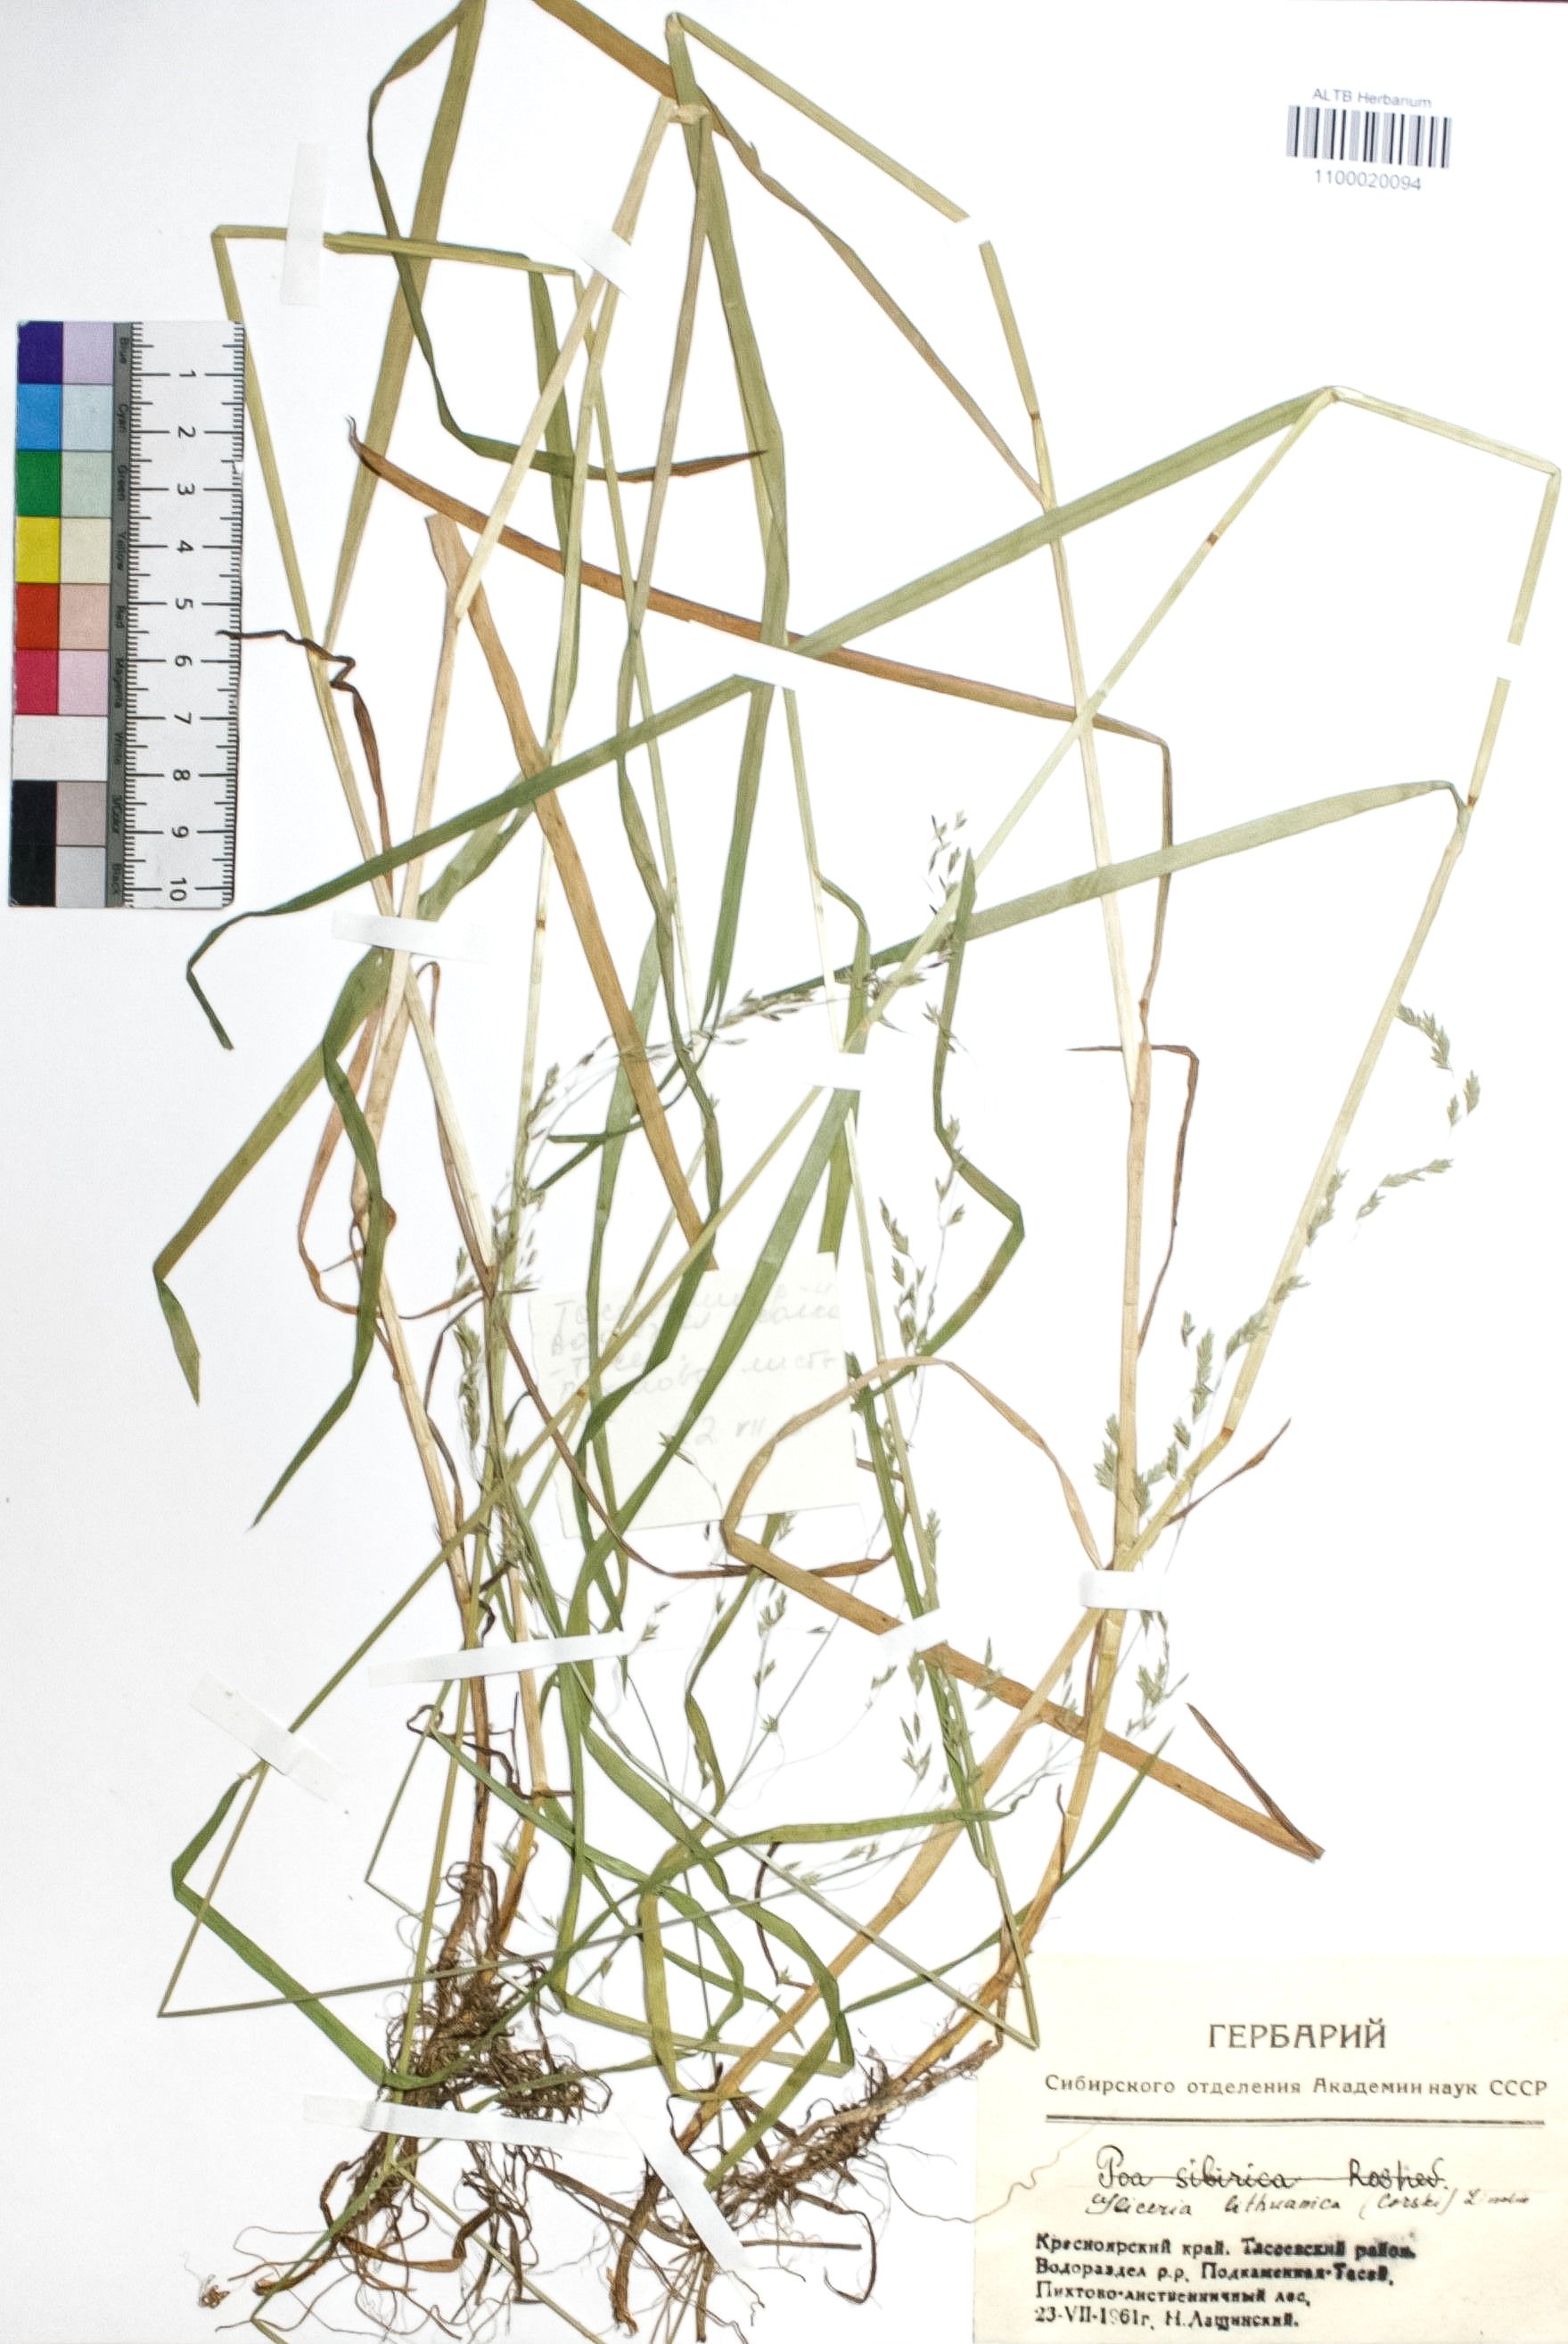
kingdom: Plantae
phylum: Tracheophyta
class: Liliopsida
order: Poales
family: Poaceae
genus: Glyceria
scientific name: Glyceria lithuanica
